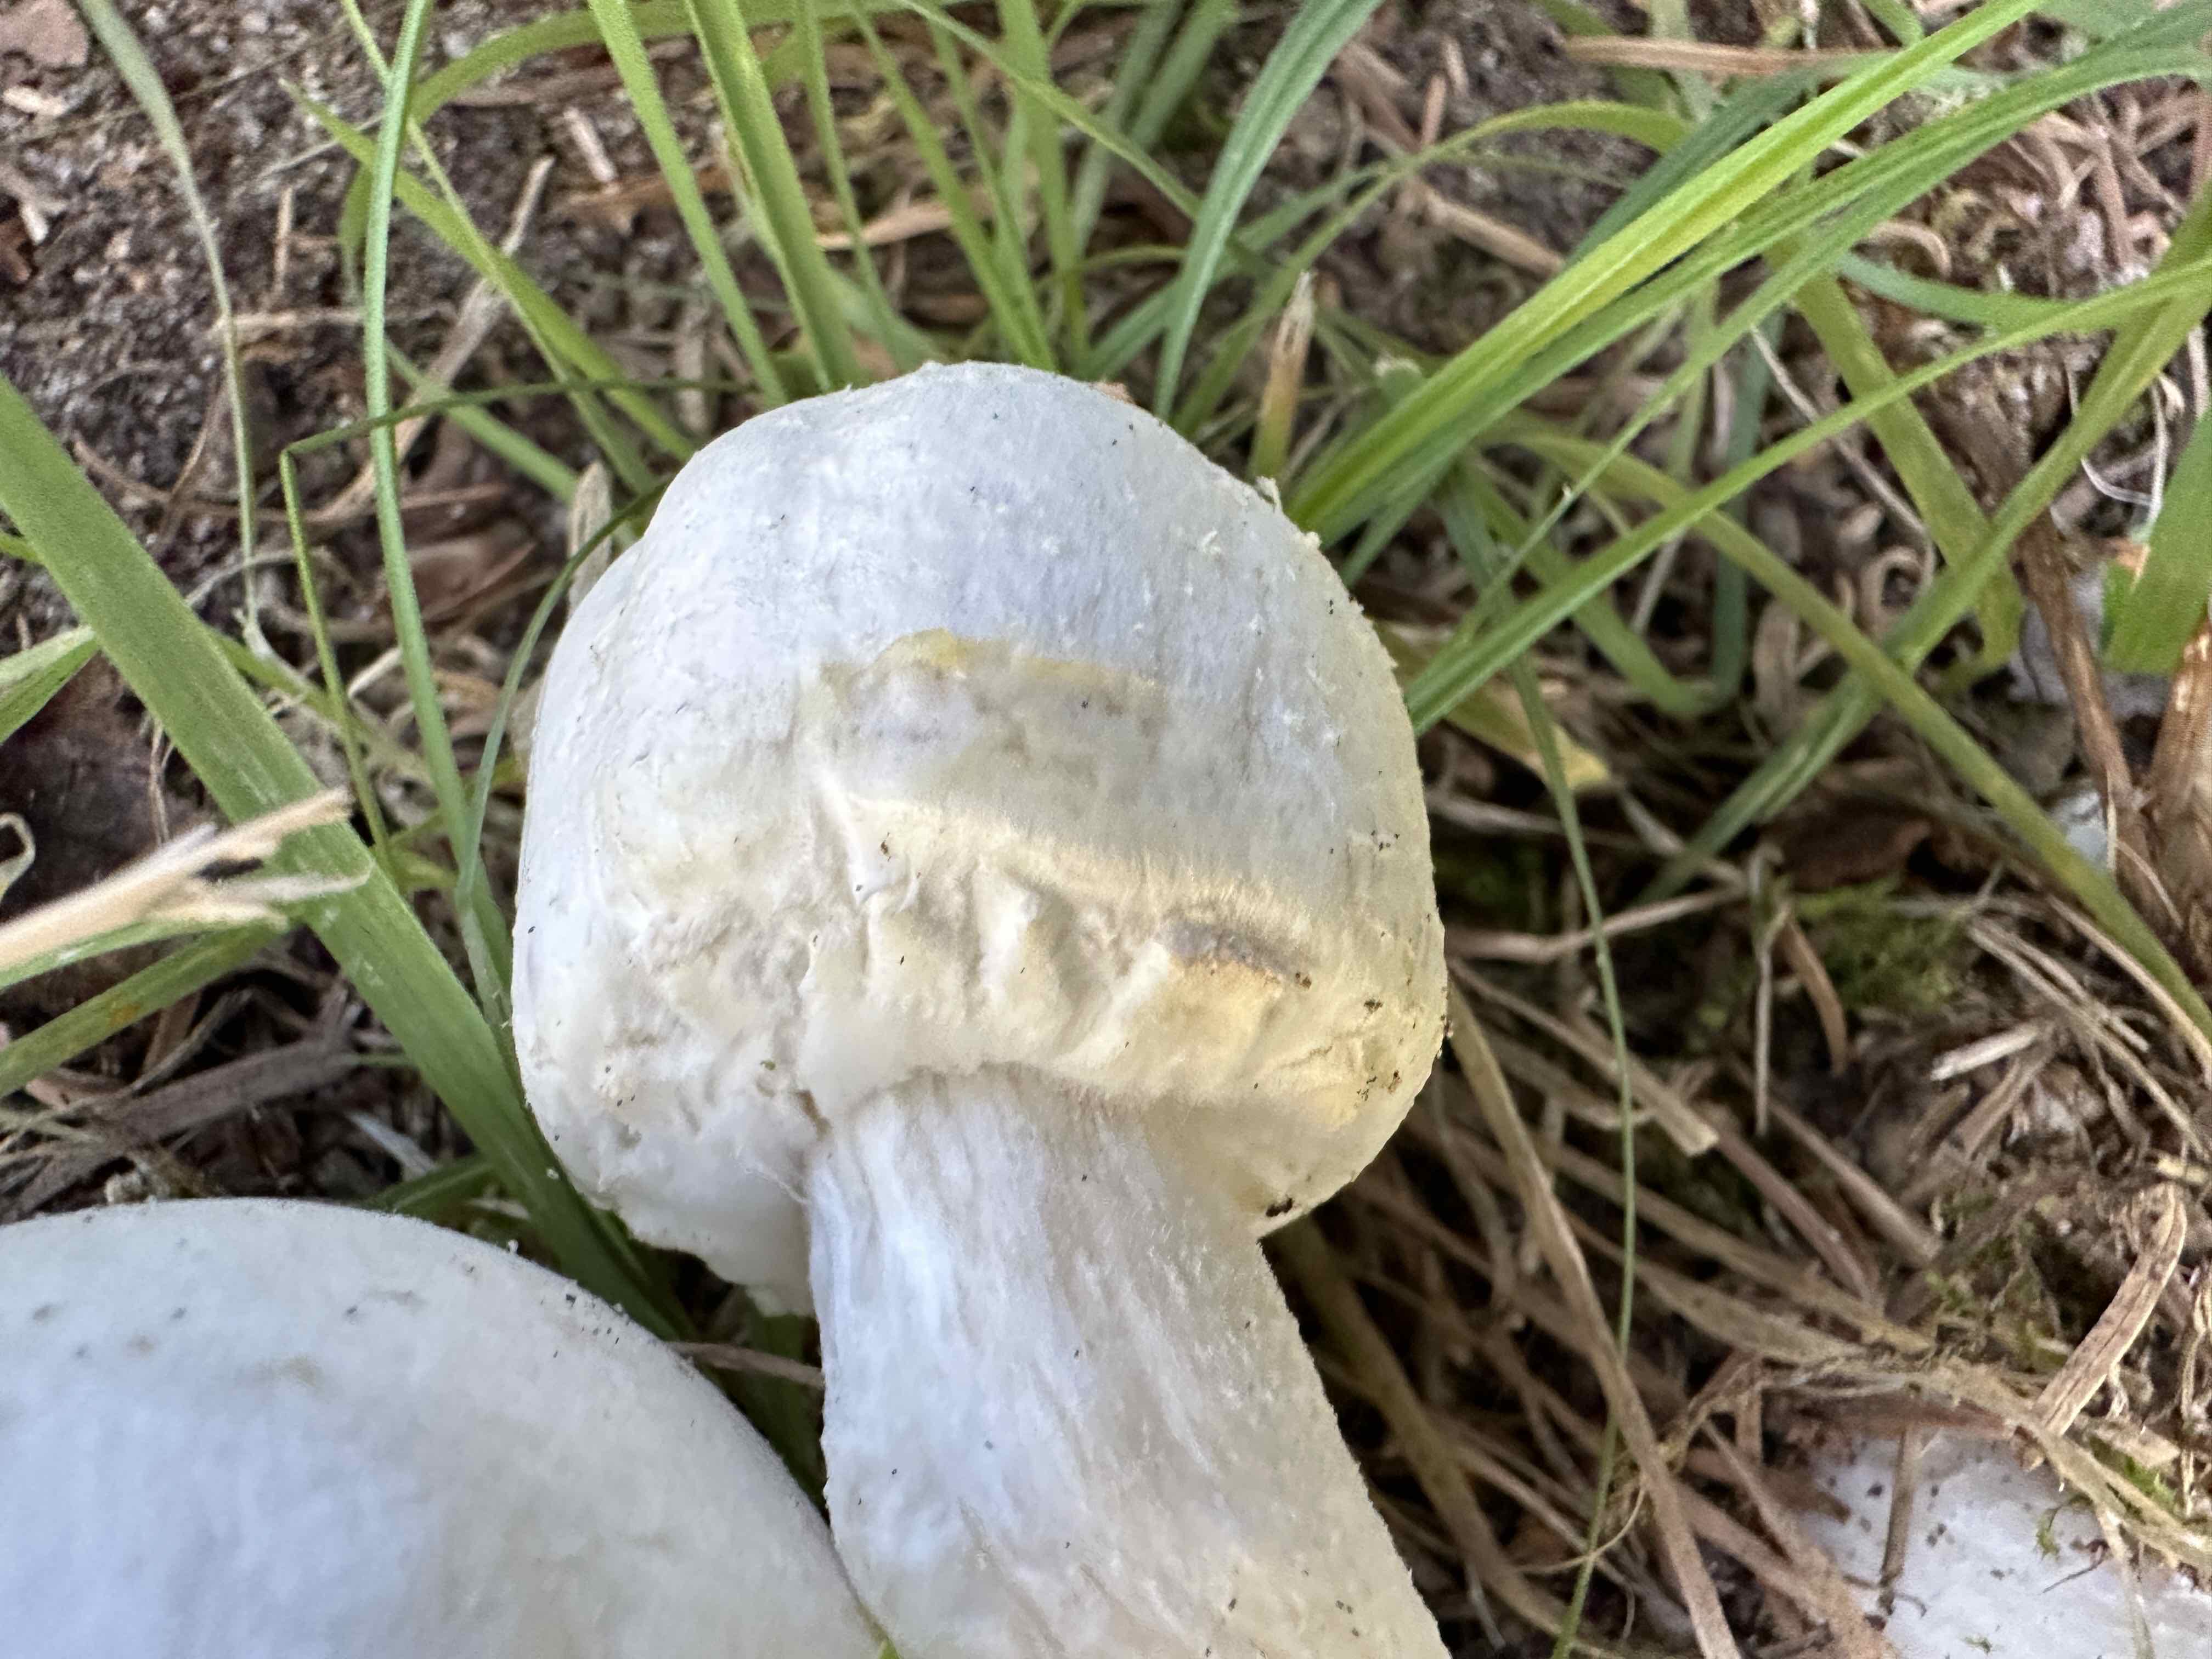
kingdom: Fungi
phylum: Basidiomycota
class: Agaricomycetes
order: Agaricales
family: Agaricaceae
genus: Agaricus
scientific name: Agaricus sylvicola
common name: gulhvid champignon
